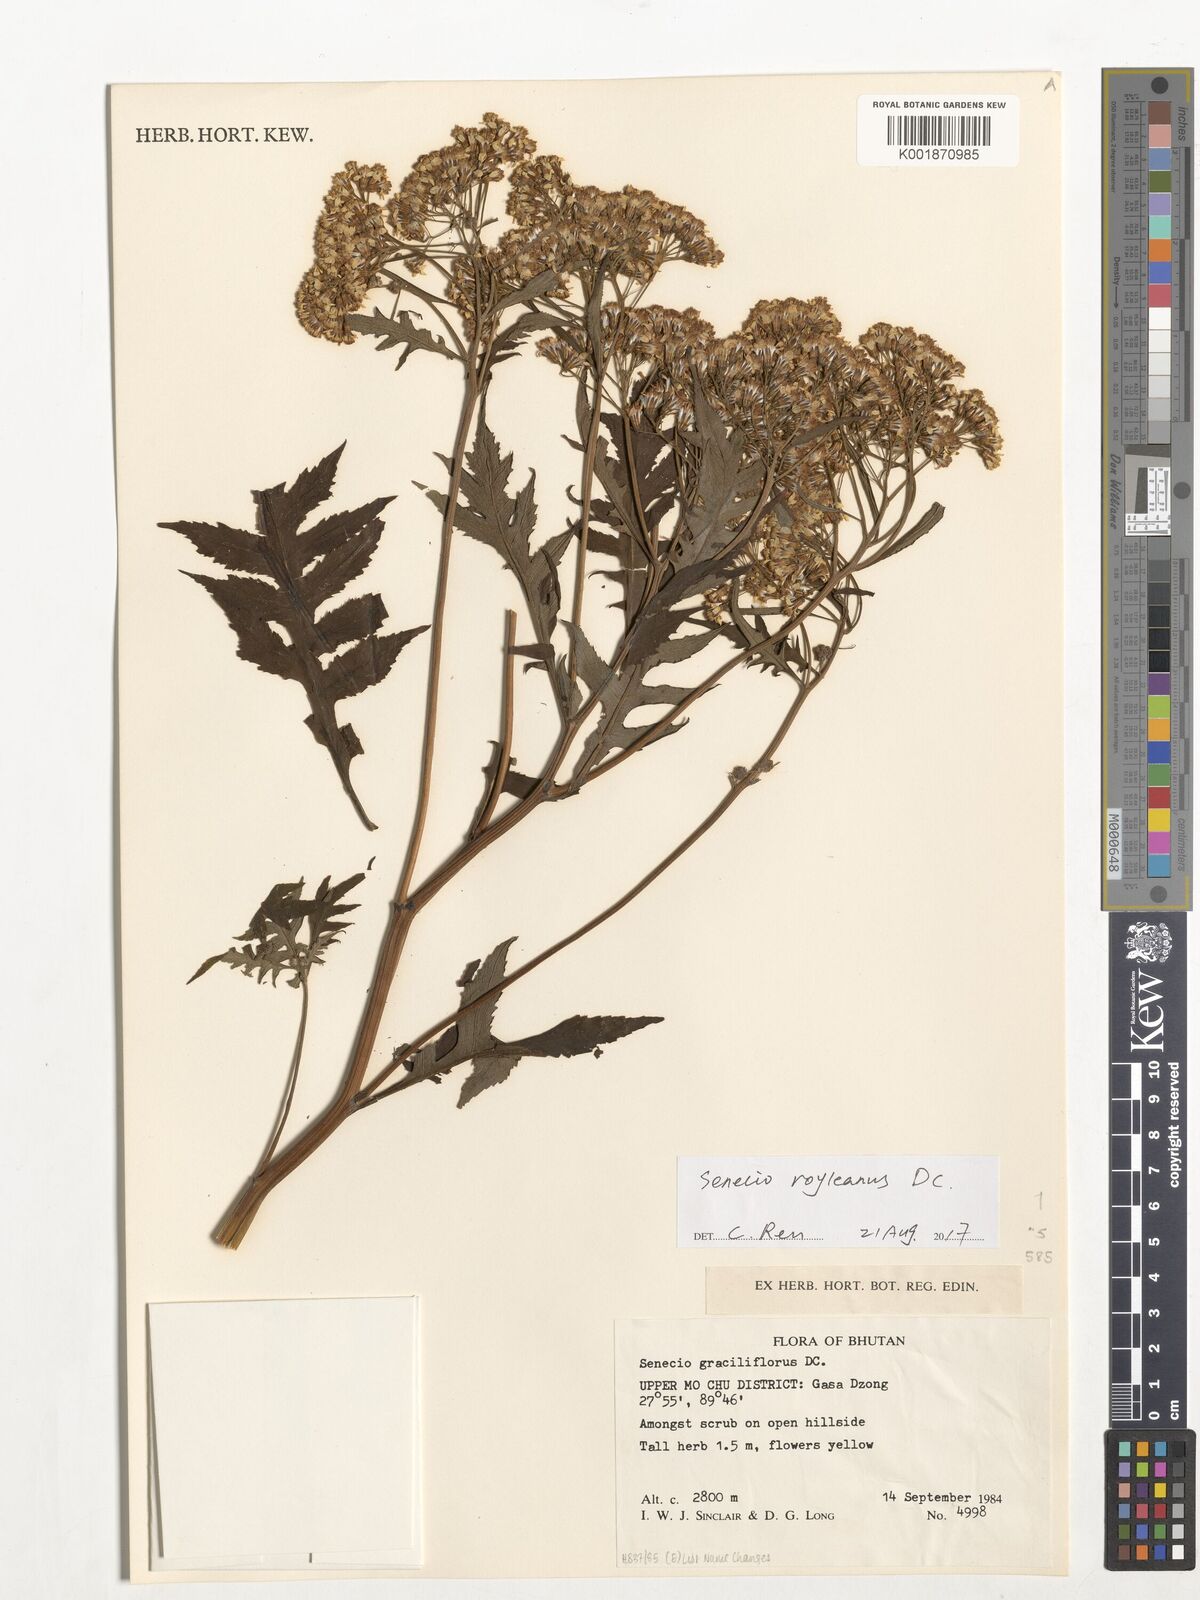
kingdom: Plantae
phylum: Tracheophyta
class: Magnoliopsida
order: Asterales
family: Asteraceae
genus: Senecio
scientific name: Senecio royleanus
